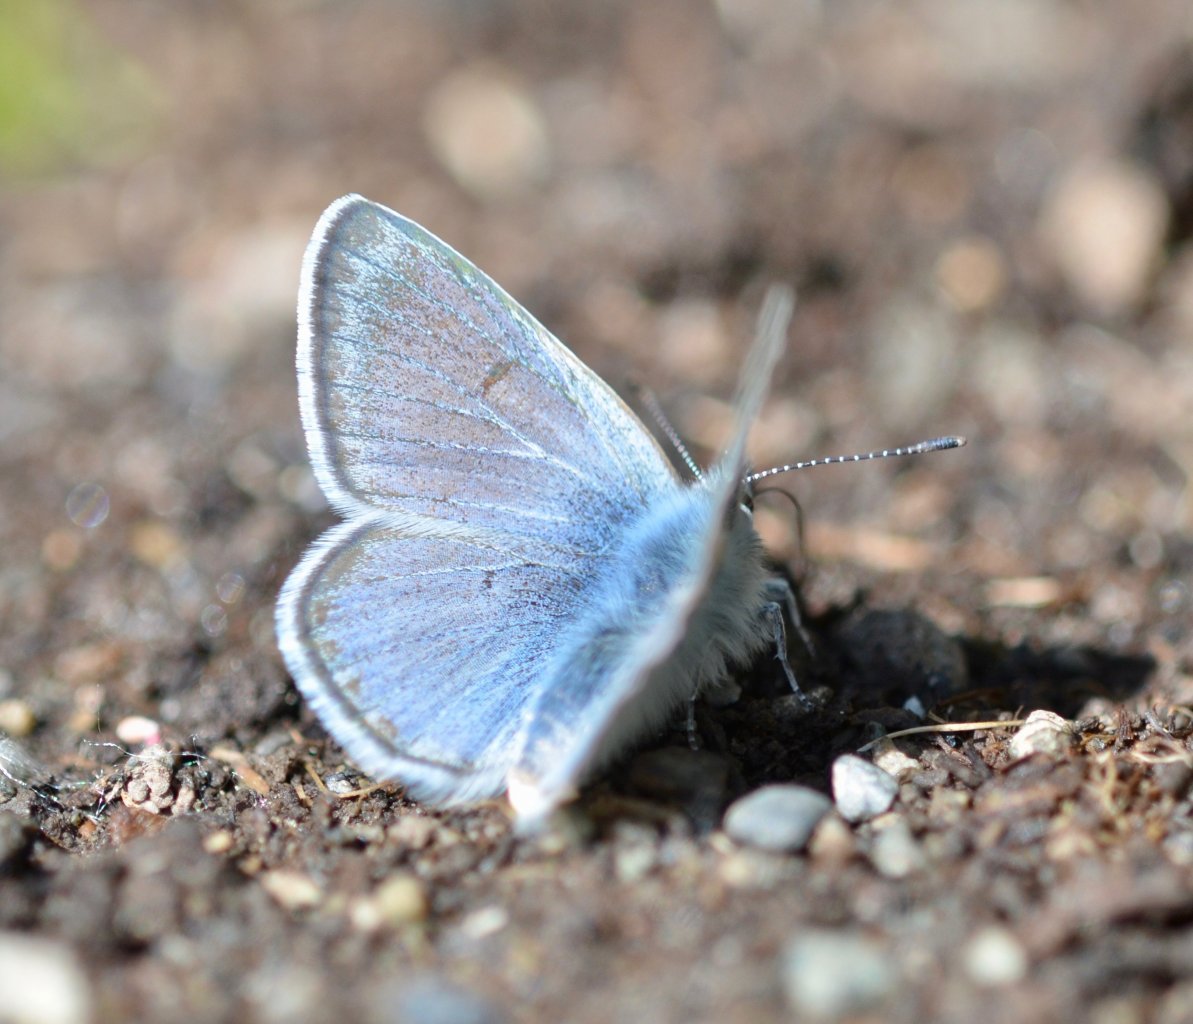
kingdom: Animalia
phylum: Arthropoda
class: Insecta
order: Lepidoptera
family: Lycaenidae
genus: Plebejus
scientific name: Plebejus saepiolus
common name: Greenish Blue
